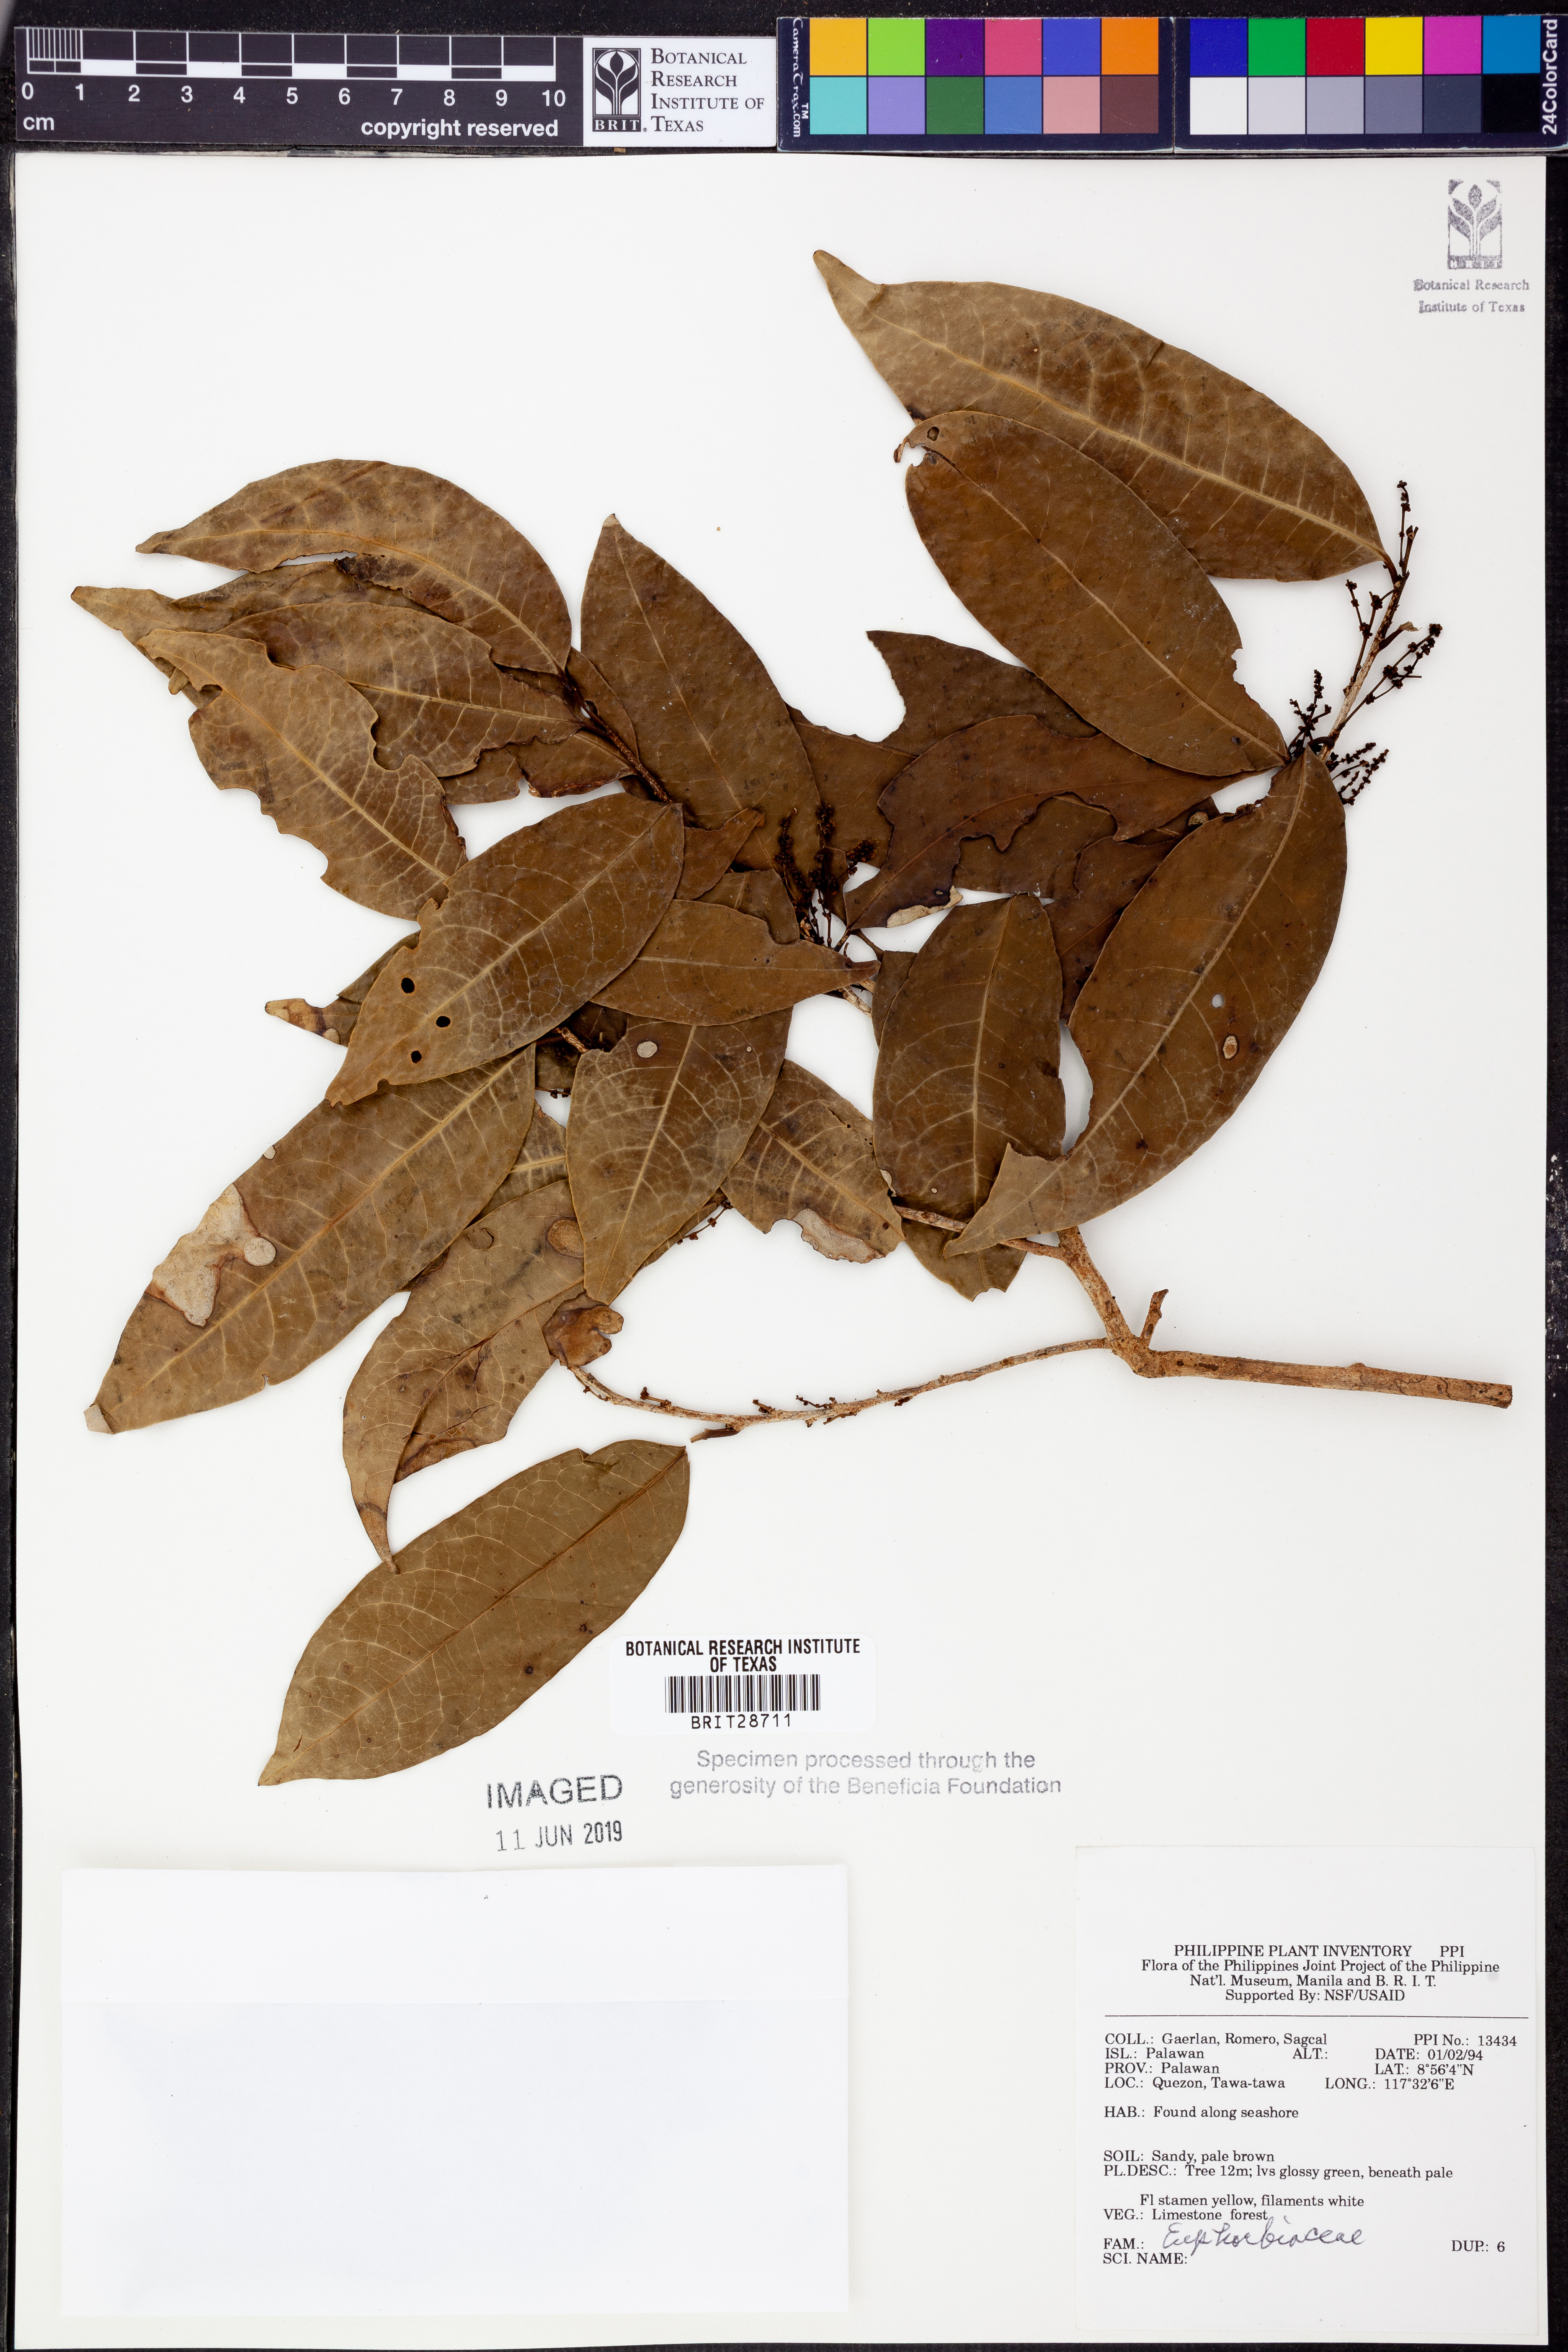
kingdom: Plantae
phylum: Tracheophyta
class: Magnoliopsida
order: Malpighiales
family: Euphorbiaceae
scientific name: Euphorbiaceae
